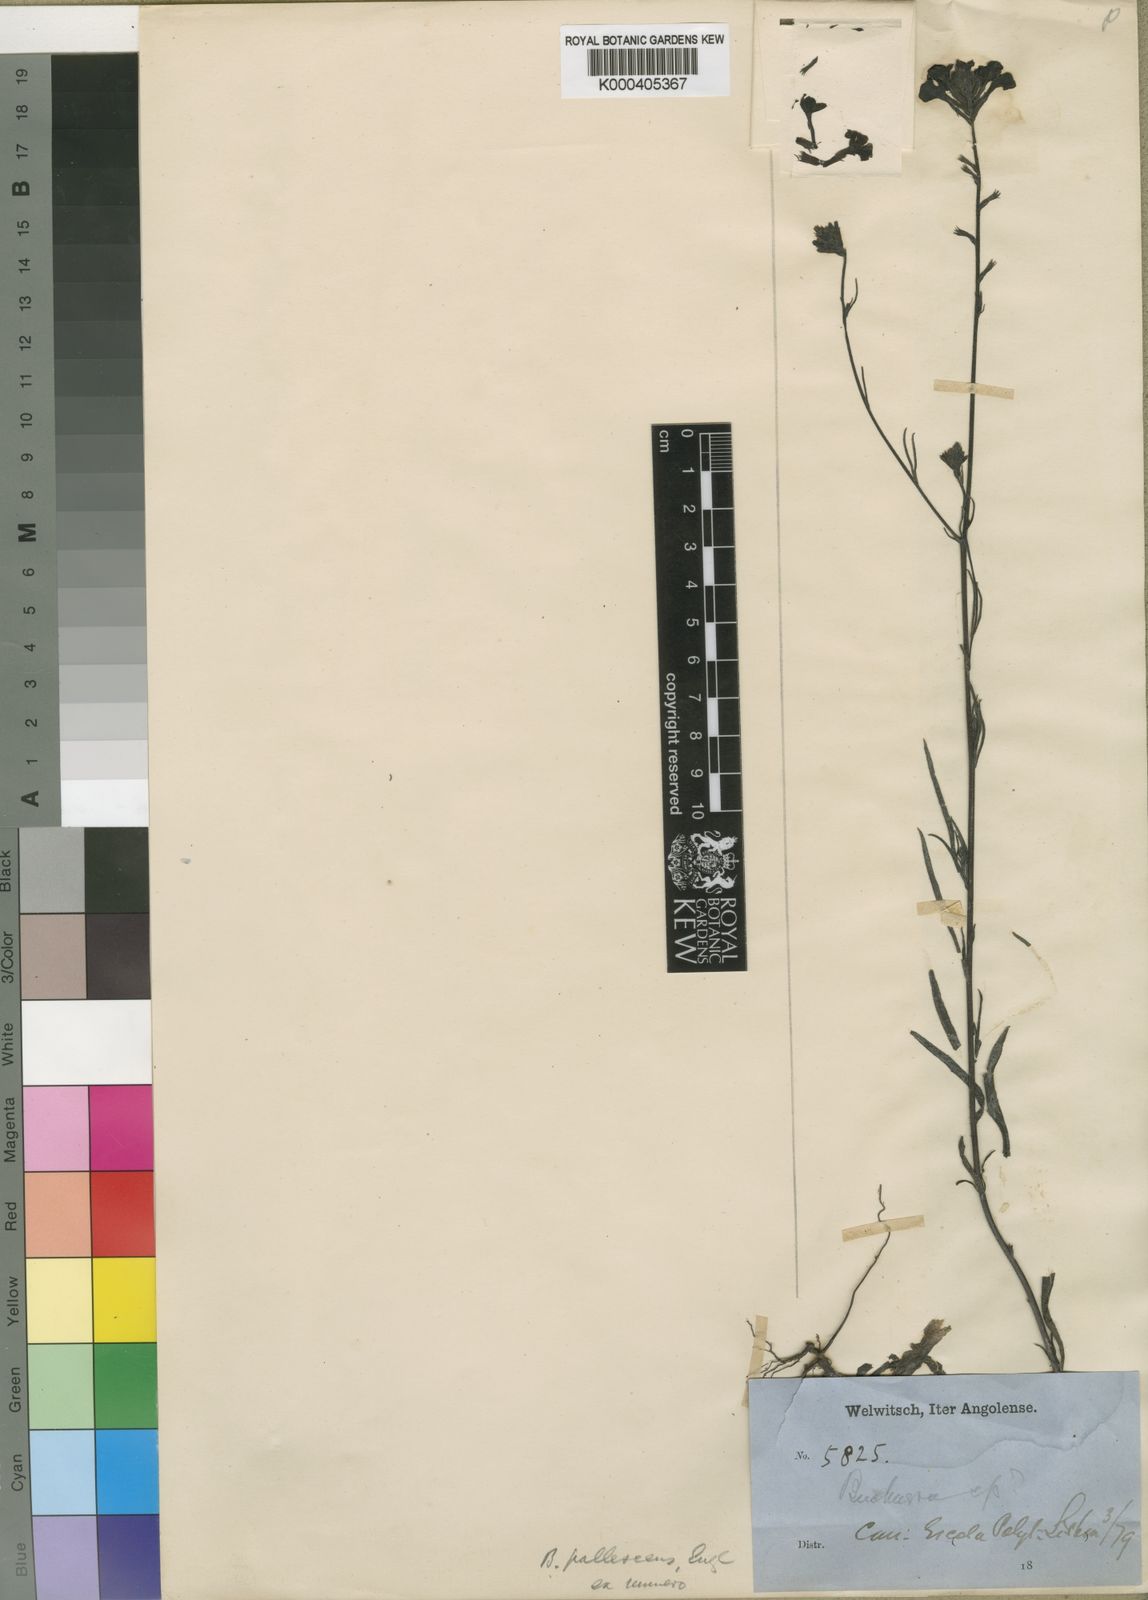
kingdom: Plantae
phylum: Tracheophyta
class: Magnoliopsida
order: Lamiales
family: Orobanchaceae
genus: Buchnera
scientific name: Buchnera pallescens
